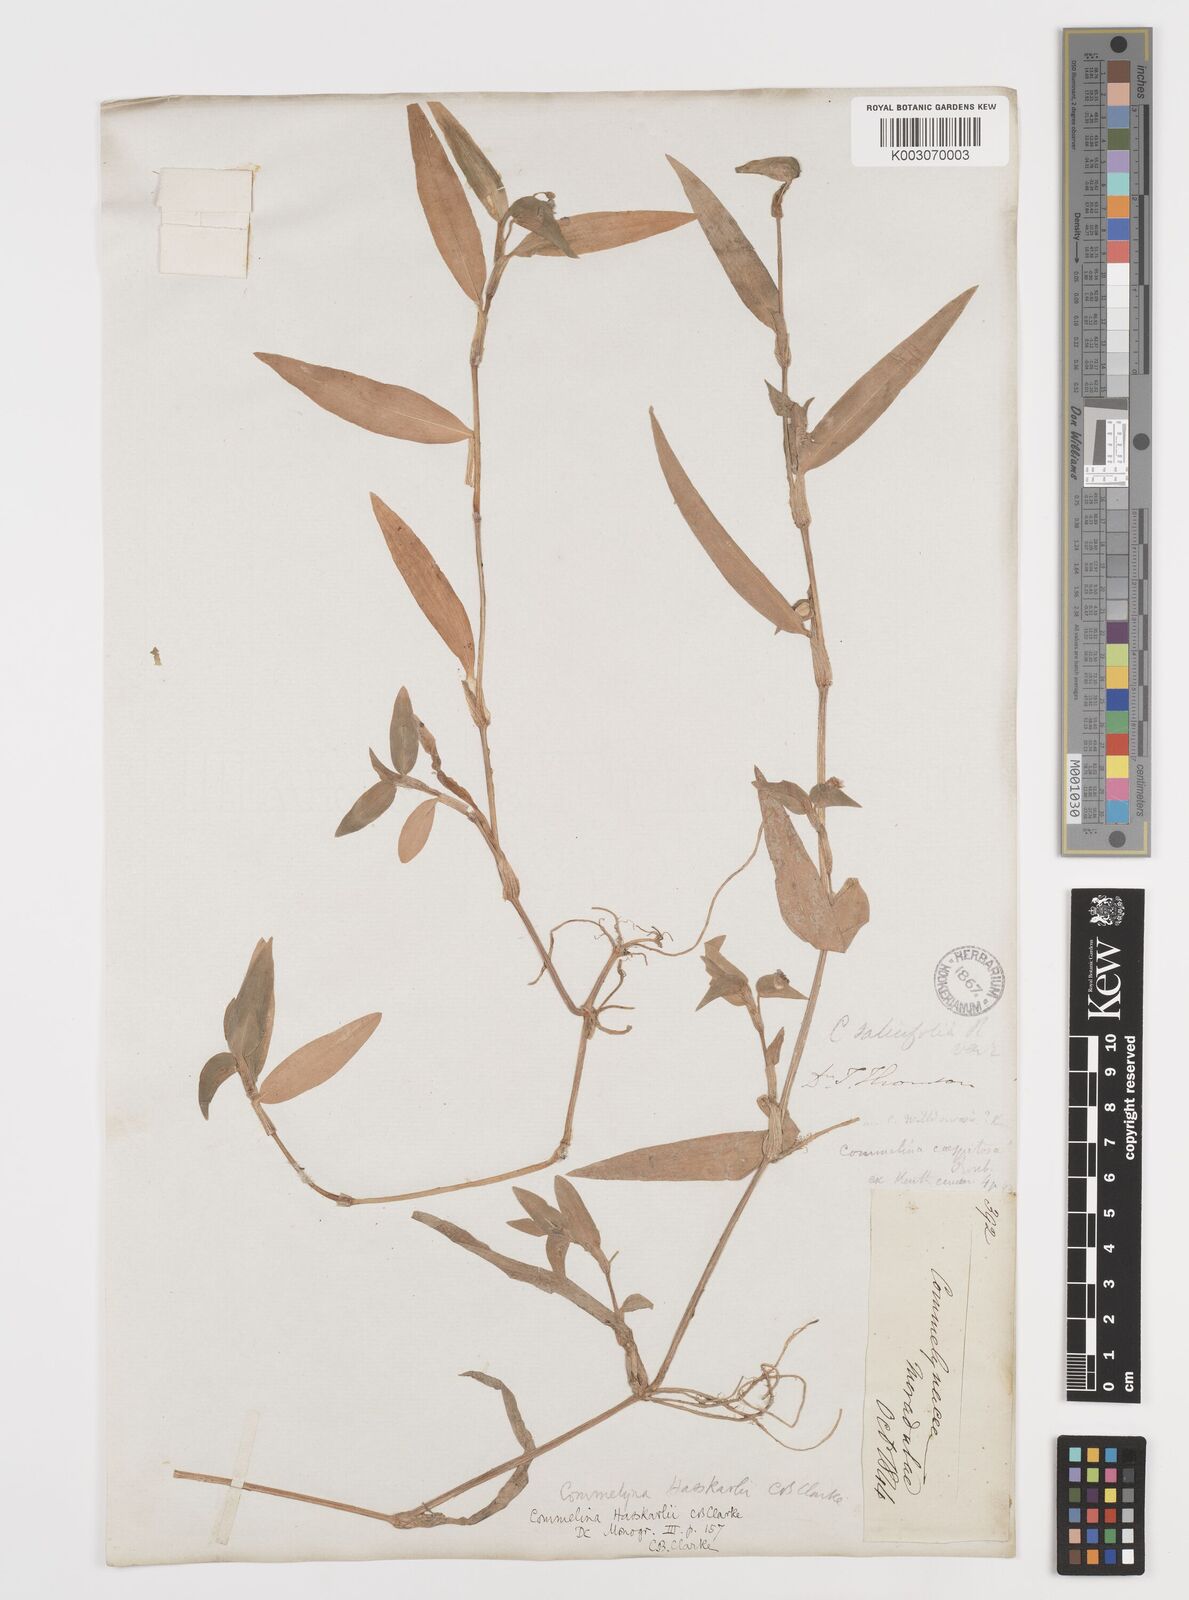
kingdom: Plantae
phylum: Tracheophyta
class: Liliopsida
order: Commelinales
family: Commelinaceae
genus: Commelina
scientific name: Commelina
